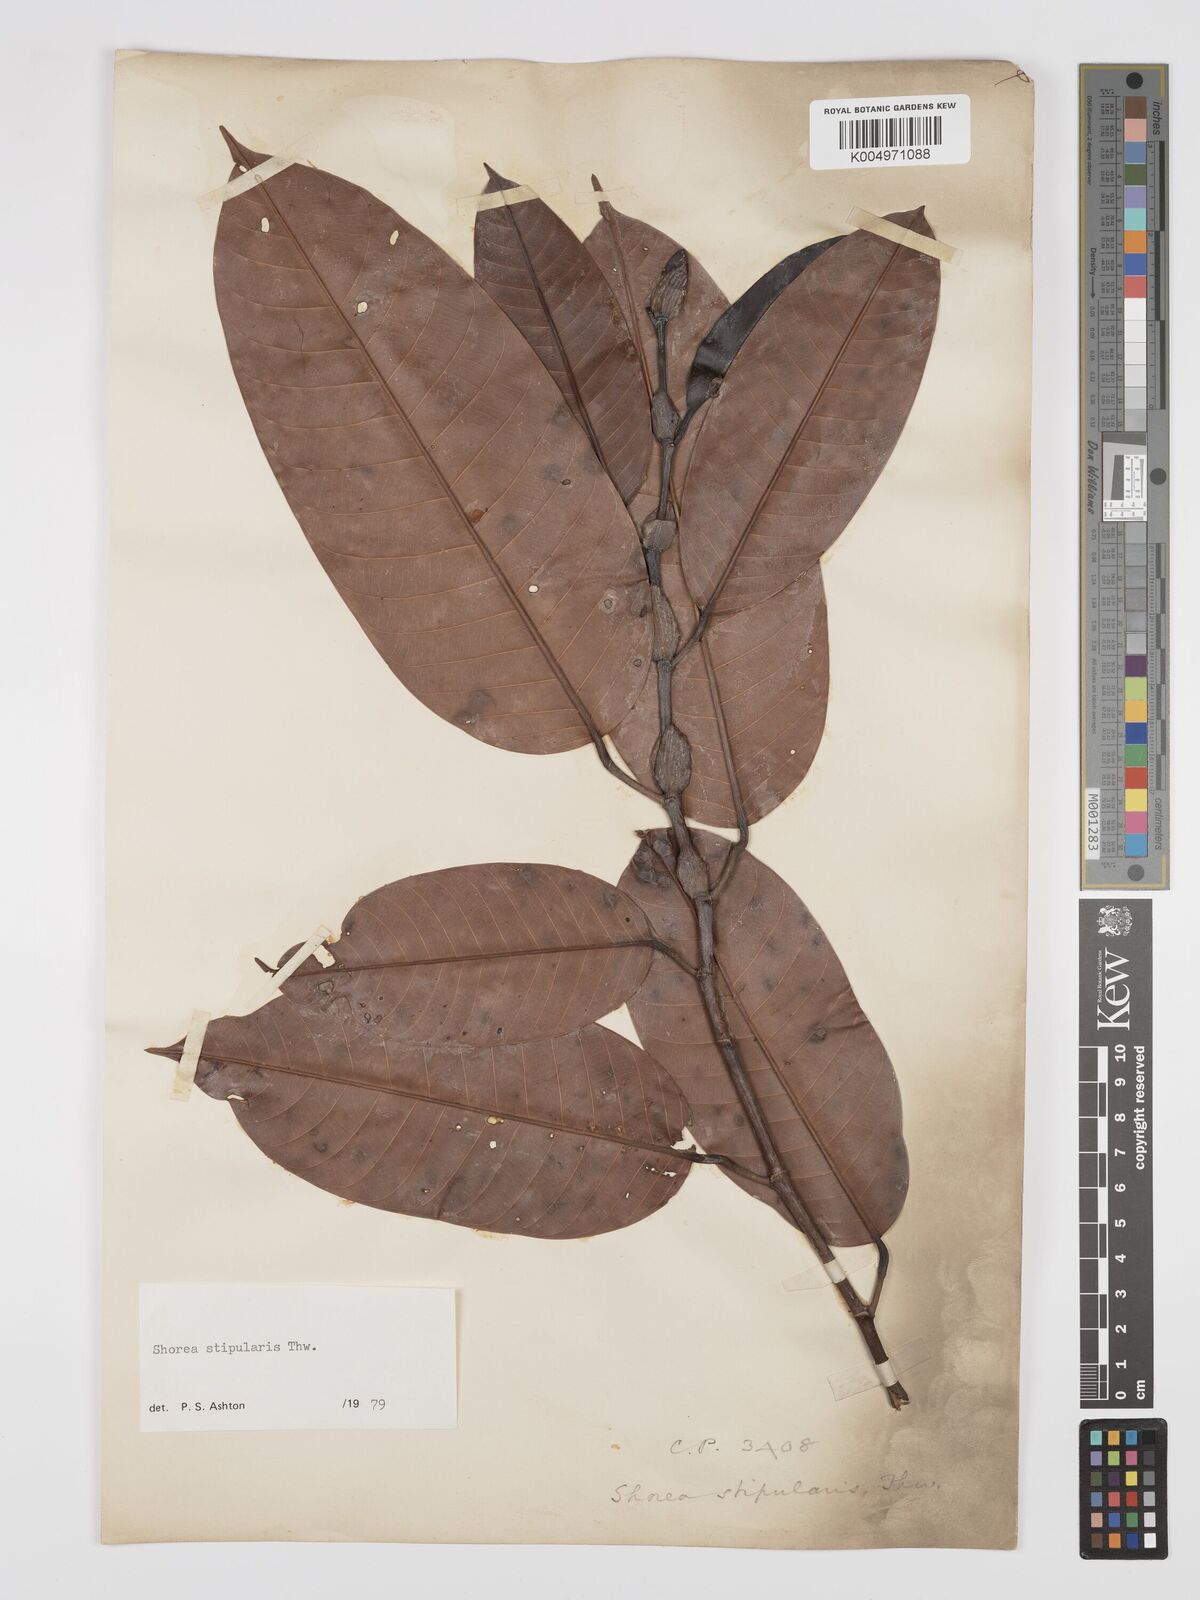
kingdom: Plantae
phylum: Tracheophyta
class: Magnoliopsida
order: Malvales
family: Dipterocarpaceae
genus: Anthoshorea
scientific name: Anthoshorea stipularis
